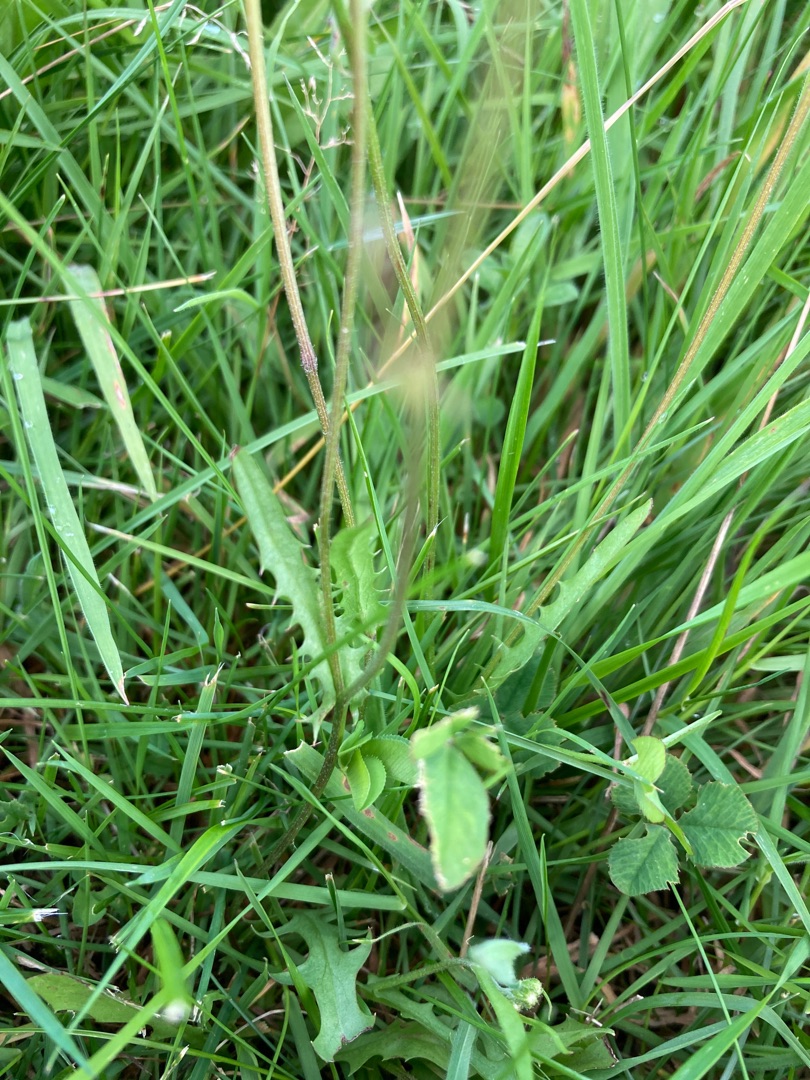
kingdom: Plantae
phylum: Tracheophyta
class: Magnoliopsida
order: Asterales
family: Asteraceae
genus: Scorzoneroides
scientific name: Scorzoneroides autumnalis
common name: Høst-borst
